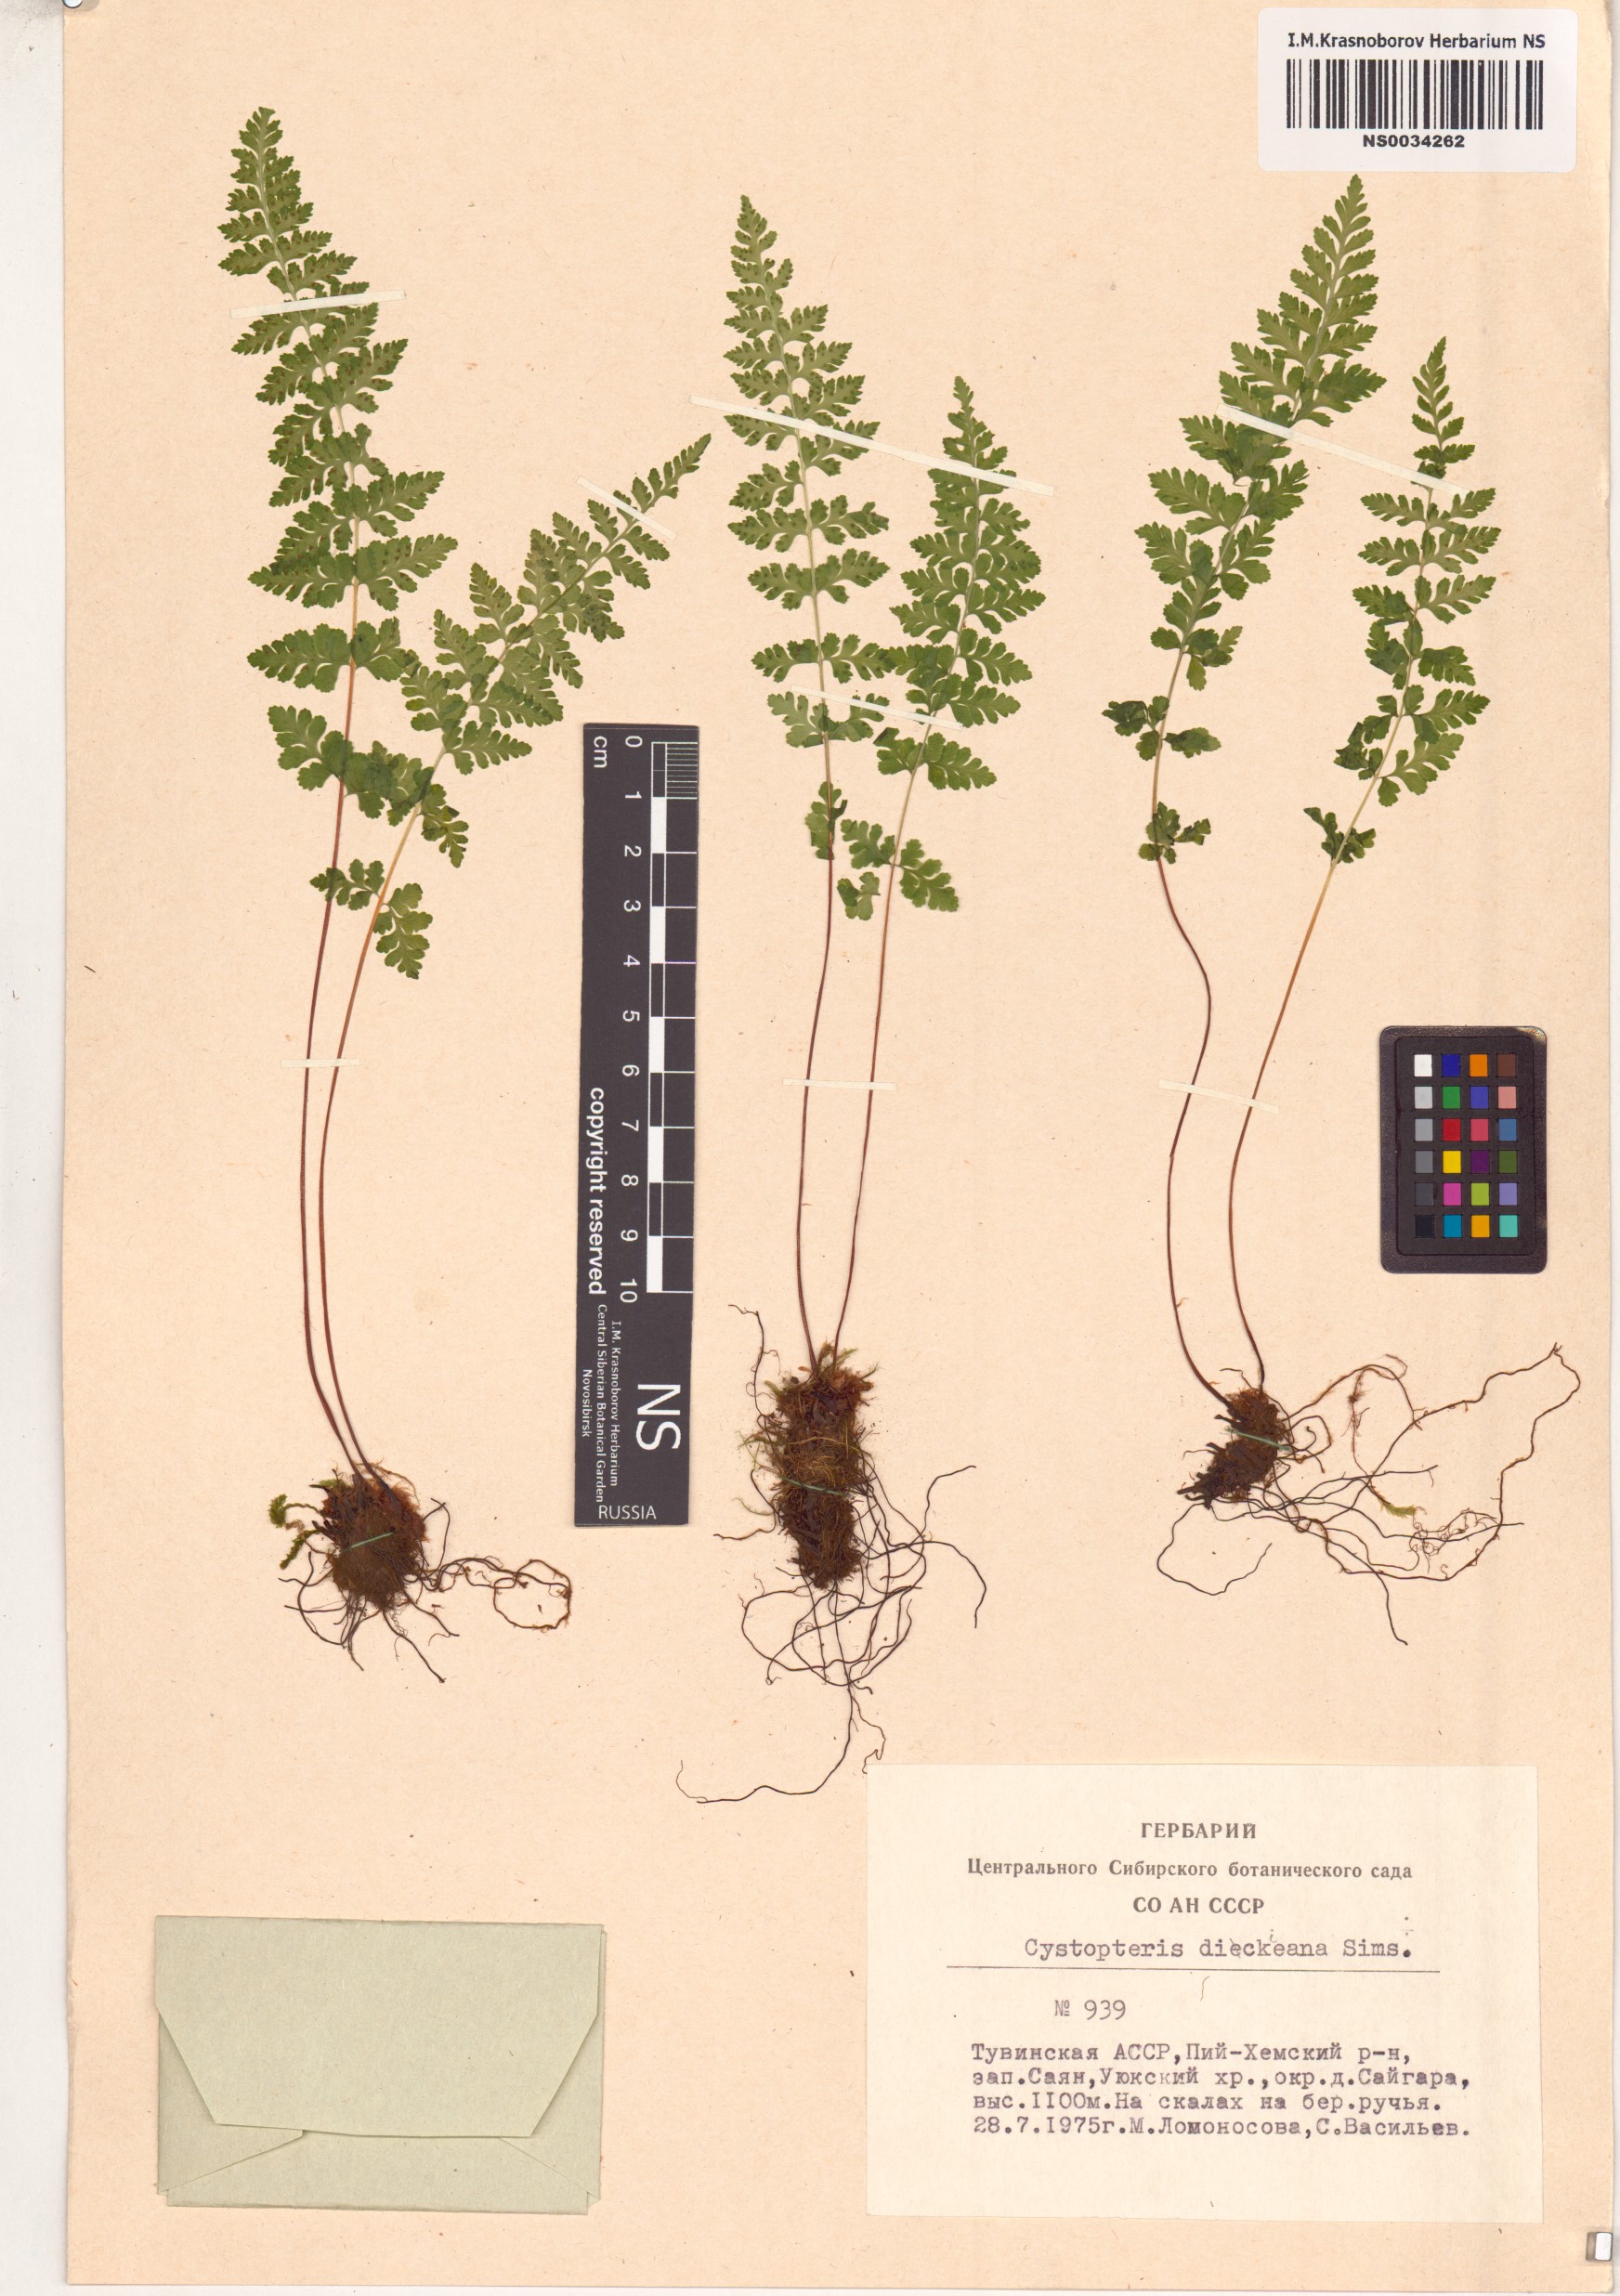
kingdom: Plantae
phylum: Tracheophyta
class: Polypodiopsida
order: Polypodiales
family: Cystopteridaceae
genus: Cystopteris
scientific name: Cystopteris dickieana
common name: Dickie's bladder-fern
